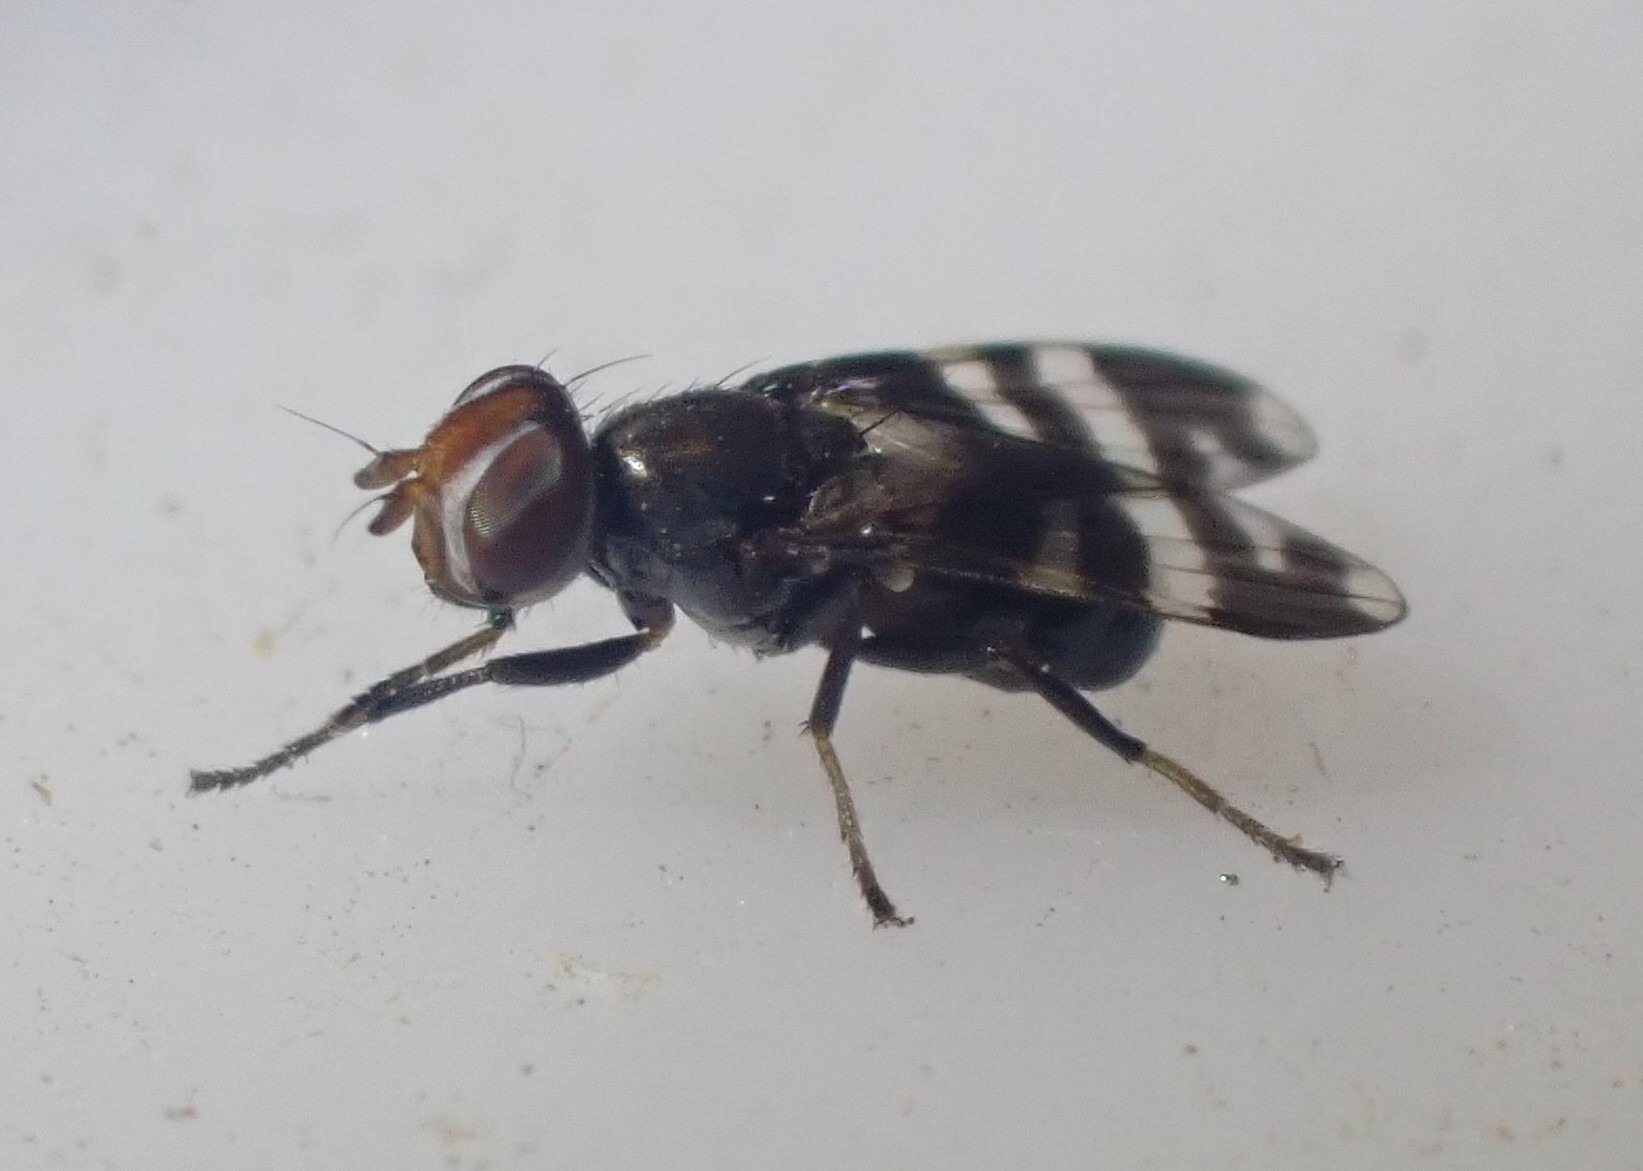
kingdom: Animalia
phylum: Arthropoda
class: Insecta
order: Diptera
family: Ulidiidae
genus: Herina
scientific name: Herina frondescentiae
